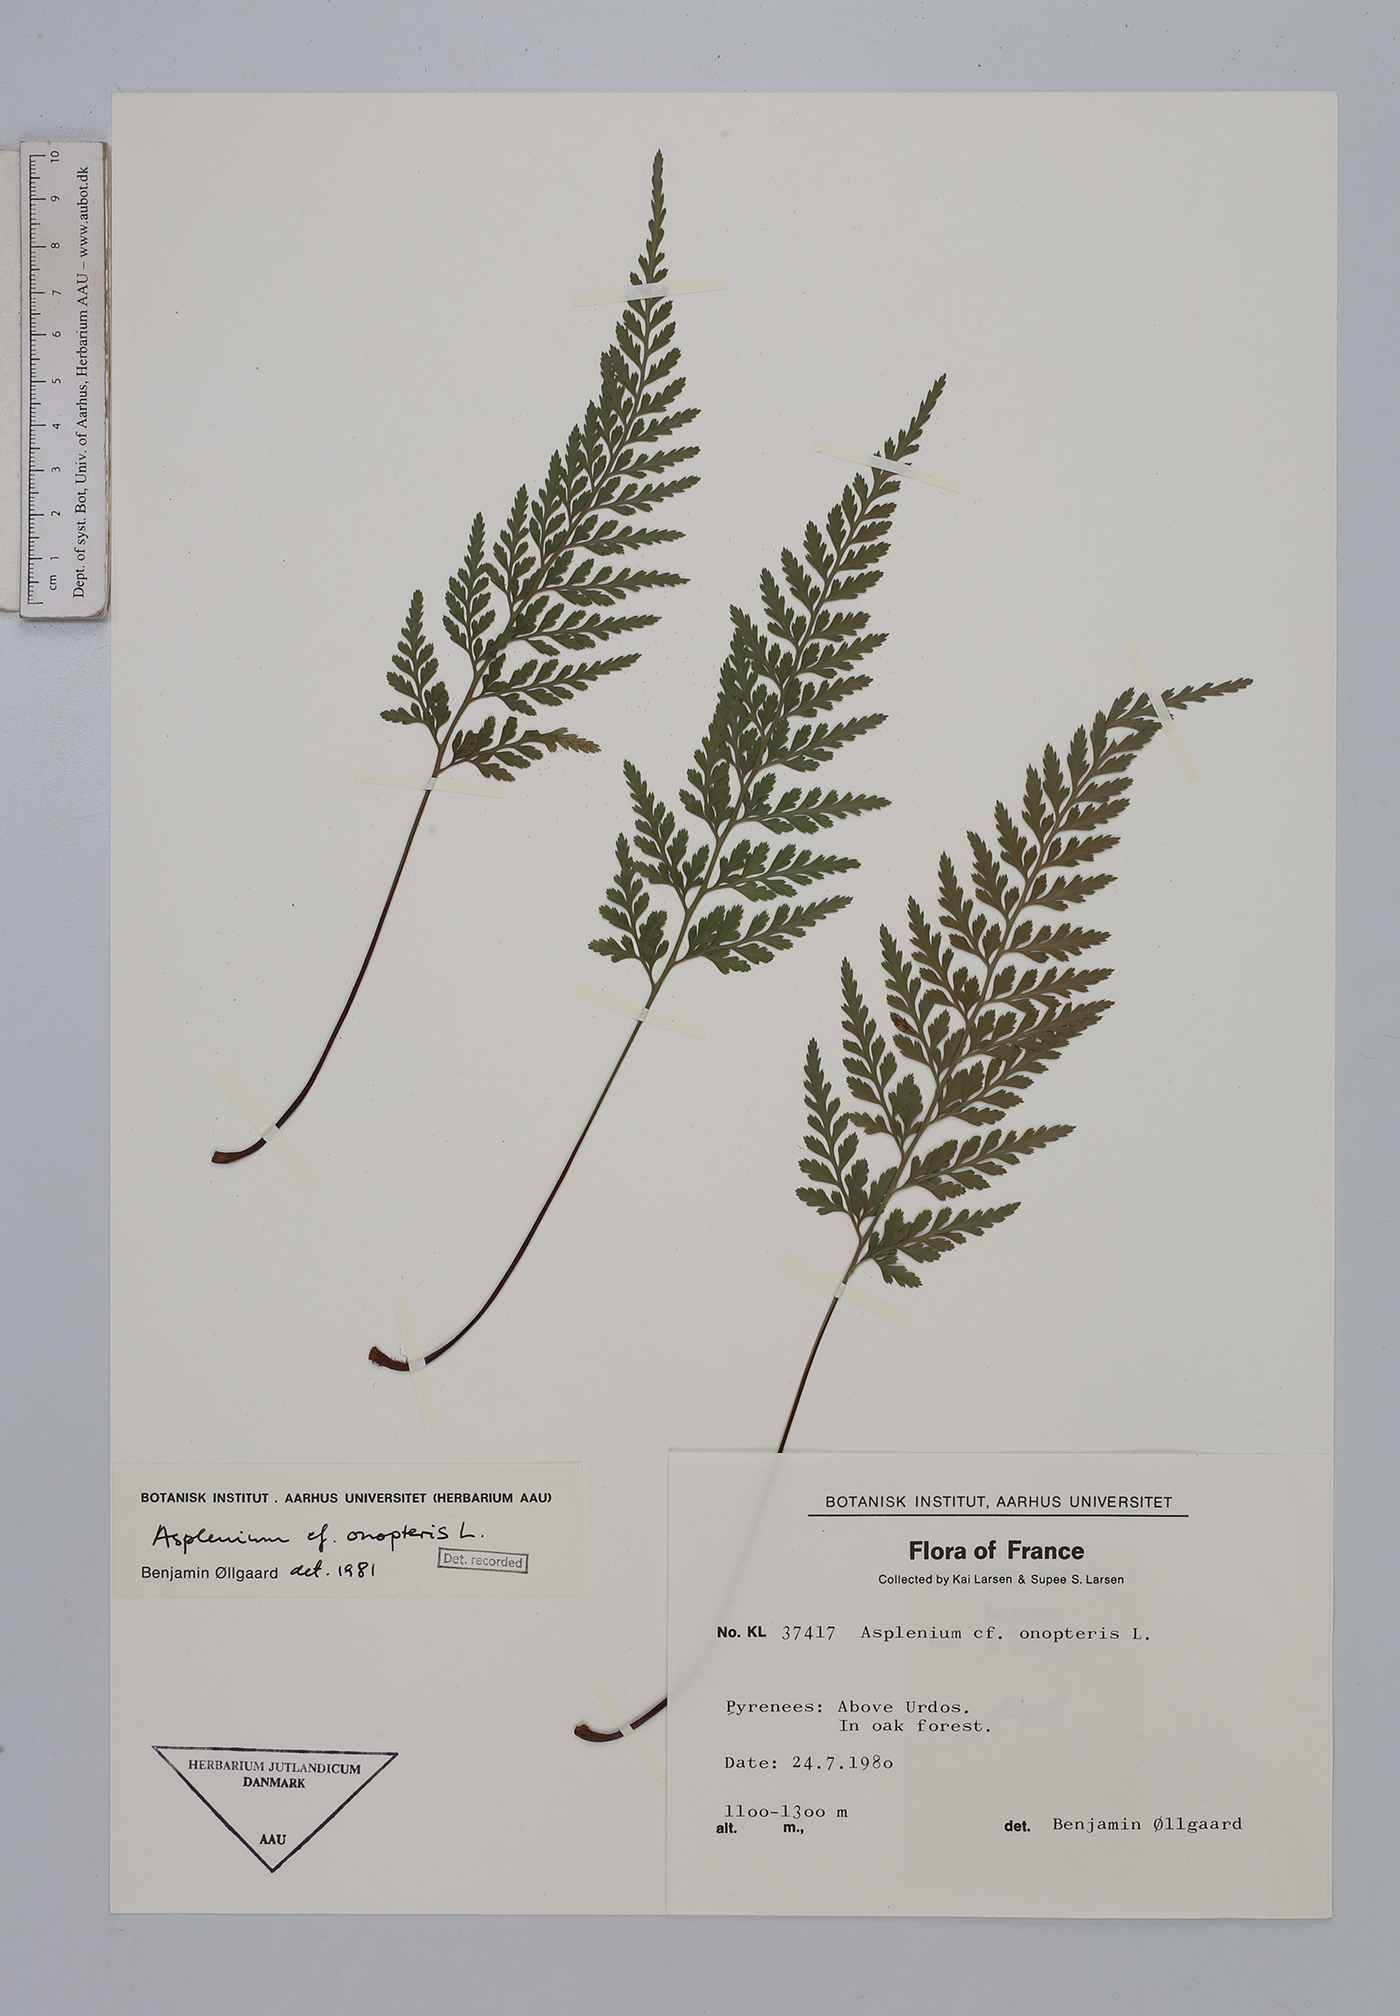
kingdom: Plantae
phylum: Tracheophyta
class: Polypodiopsida
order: Polypodiales
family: Aspleniaceae
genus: Asplenium
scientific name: Asplenium onopteris
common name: Irish spleenwort
